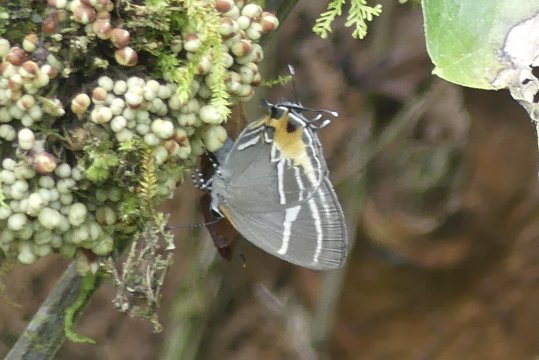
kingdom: Animalia
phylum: Arthropoda
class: Insecta
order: Lepidoptera
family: Lycaenidae
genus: Thecla
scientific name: Thecla terentia
